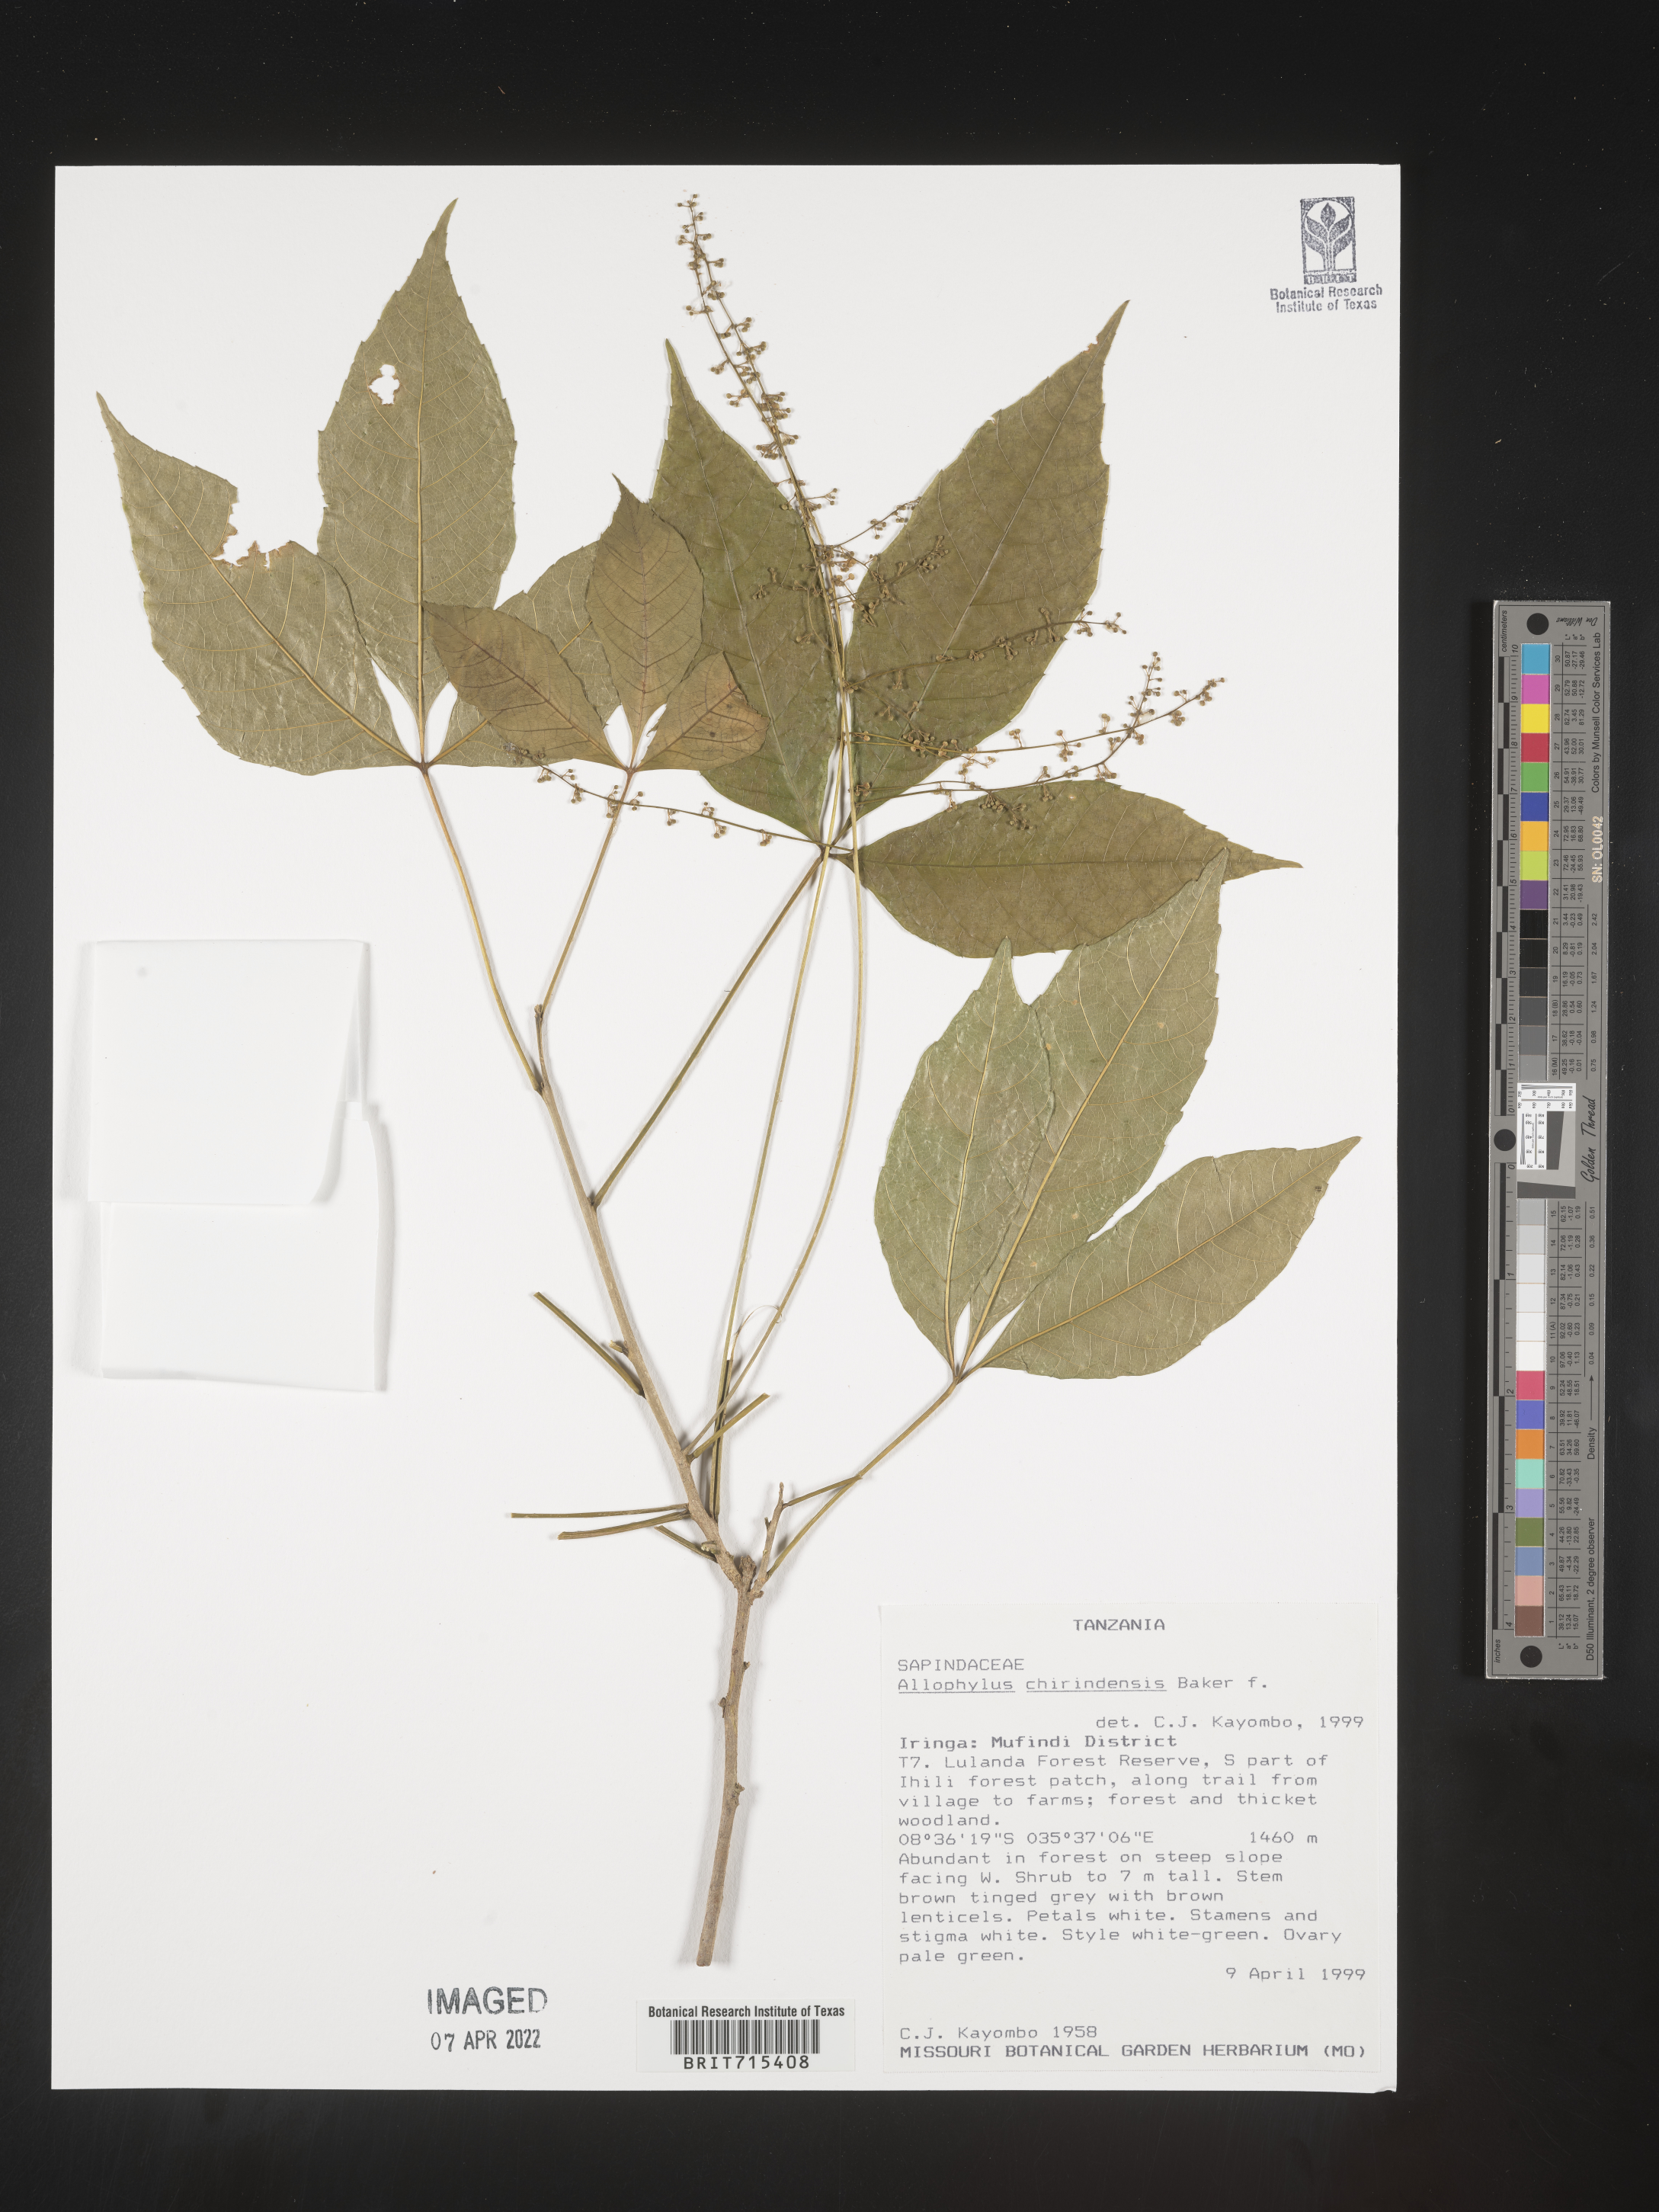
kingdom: Plantae
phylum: Tracheophyta
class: Magnoliopsida
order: Sapindales
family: Sapindaceae
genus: Allophylus
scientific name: Allophylus
